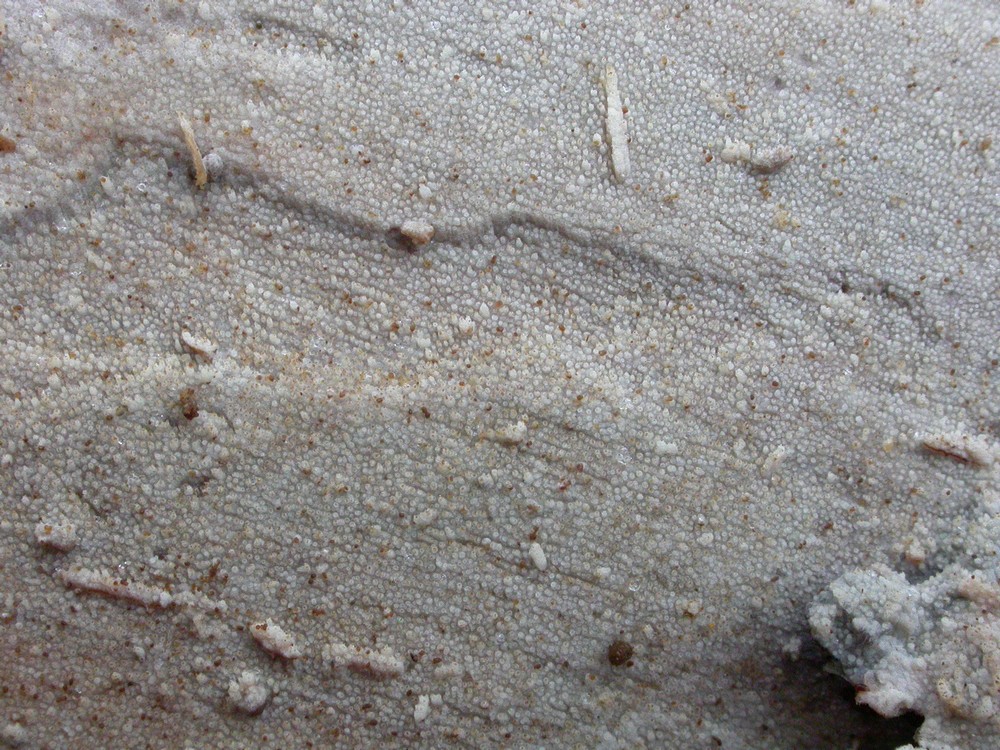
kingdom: Fungi
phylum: Basidiomycota
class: Agaricomycetes
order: Hymenochaetales
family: Rickenellaceae
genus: Resinicium
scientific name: Resinicium bicolor
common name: almindelig vokstand
